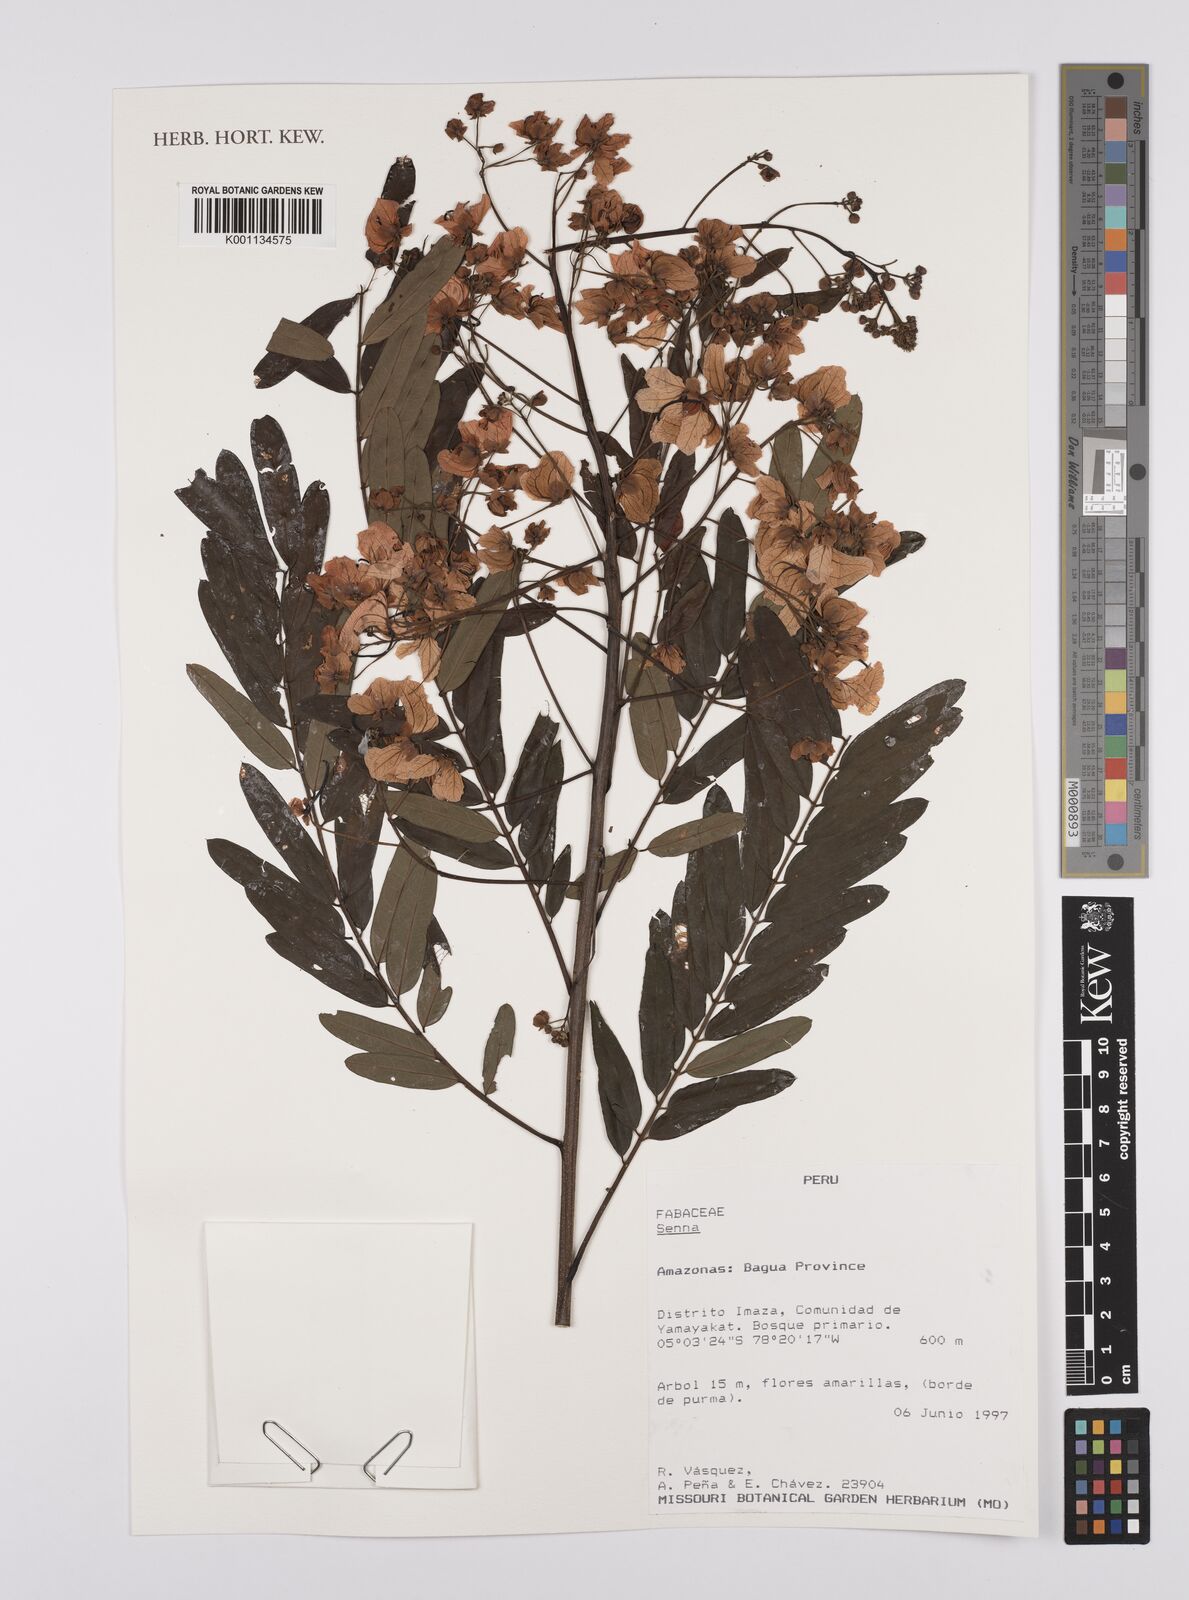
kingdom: Plantae
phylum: Tracheophyta
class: Magnoliopsida
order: Fabales
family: Fabaceae
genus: Senna
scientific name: Senna
